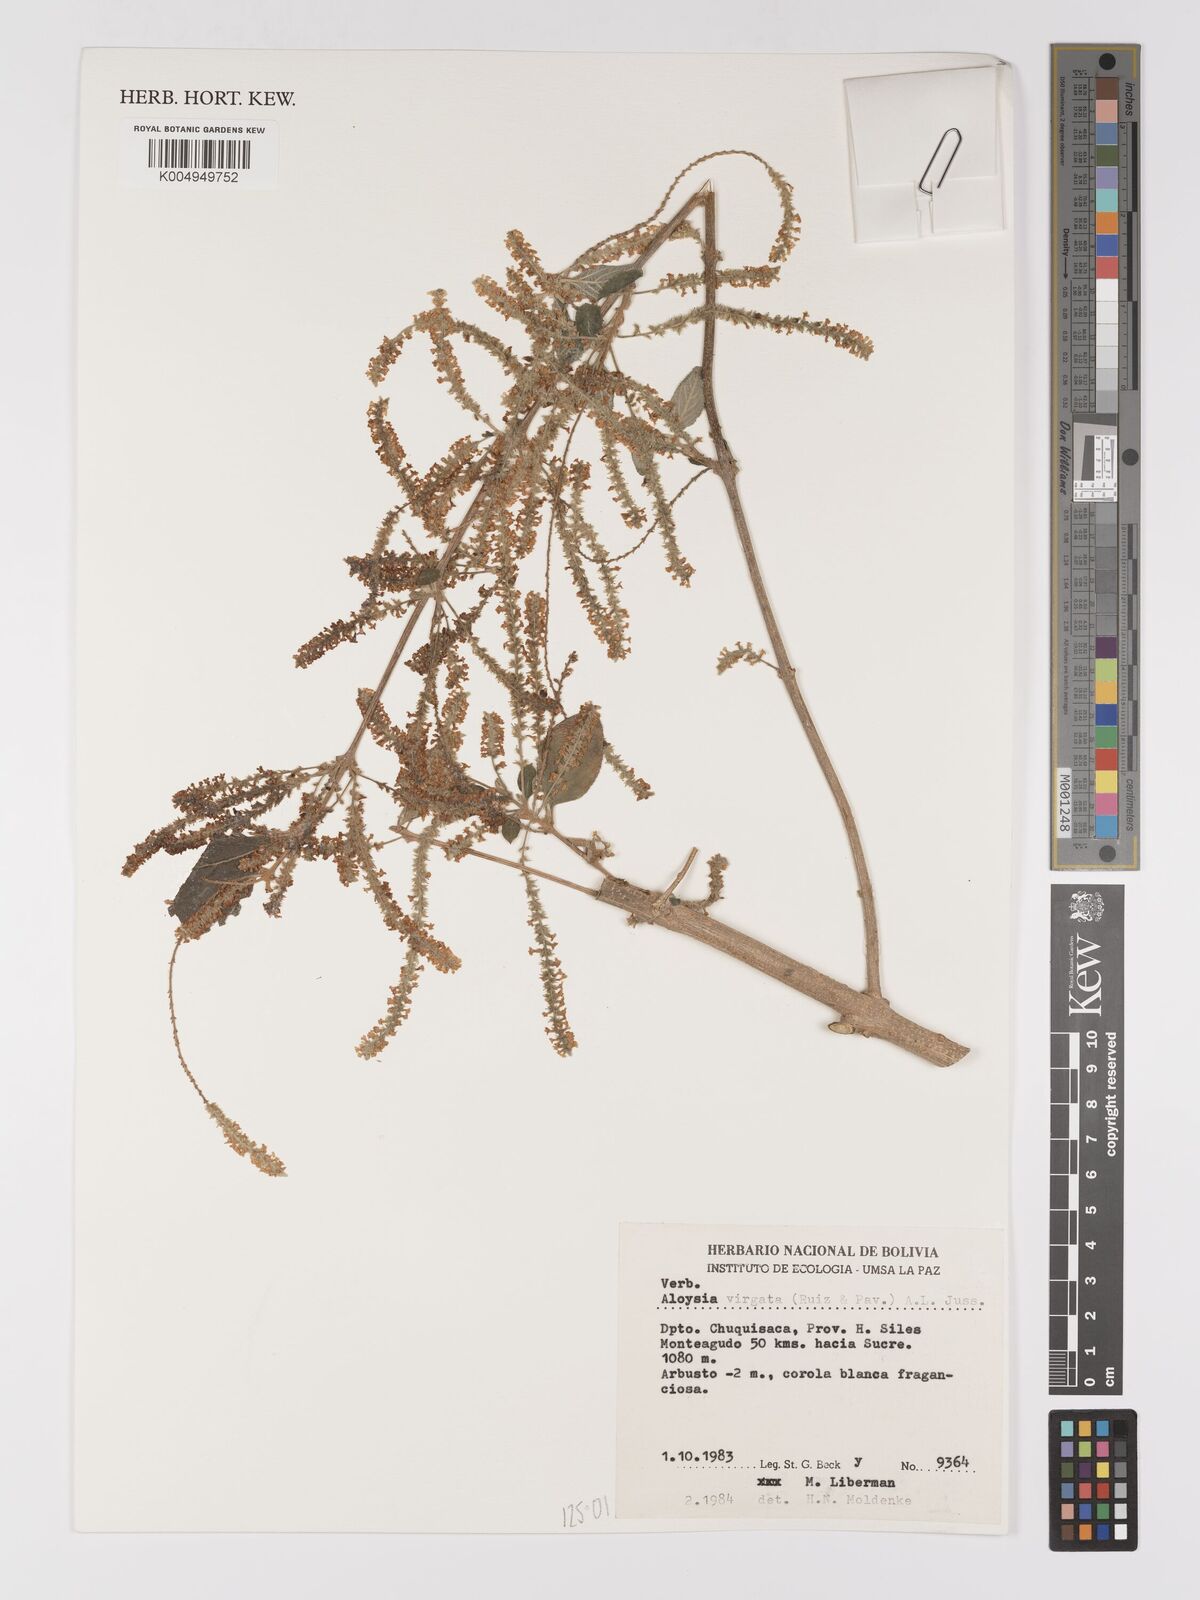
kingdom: Plantae
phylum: Tracheophyta
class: Magnoliopsida
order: Lamiales
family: Verbenaceae
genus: Aloysia
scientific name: Aloysia virgata
